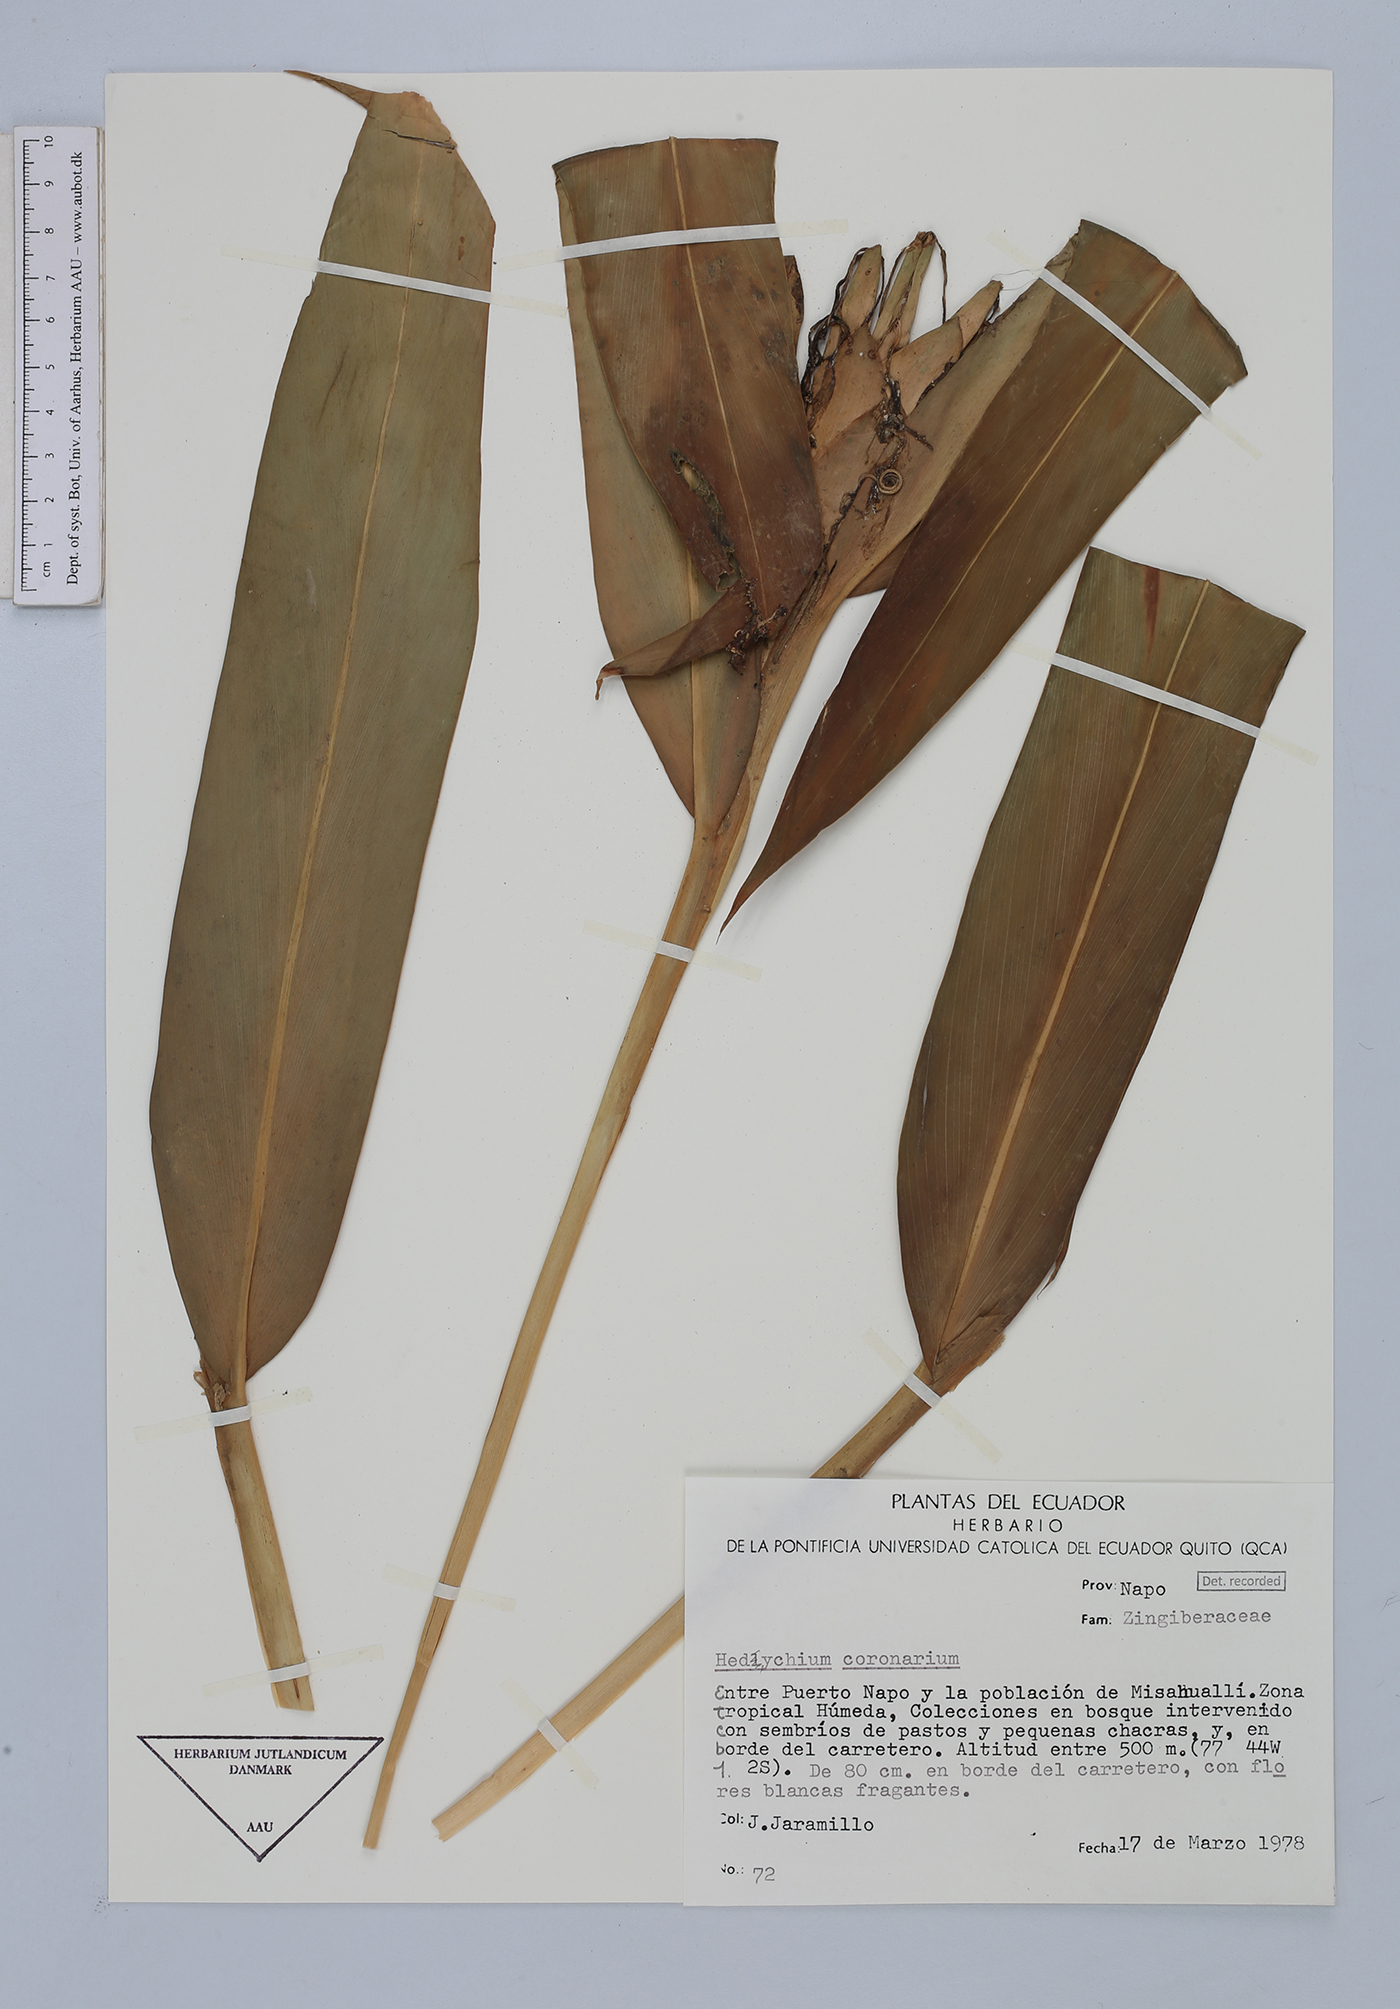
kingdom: Plantae
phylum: Tracheophyta
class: Liliopsida
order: Zingiberales
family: Zingiberaceae
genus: Hedychium
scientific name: Hedychium coronarium
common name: White garland-lily
